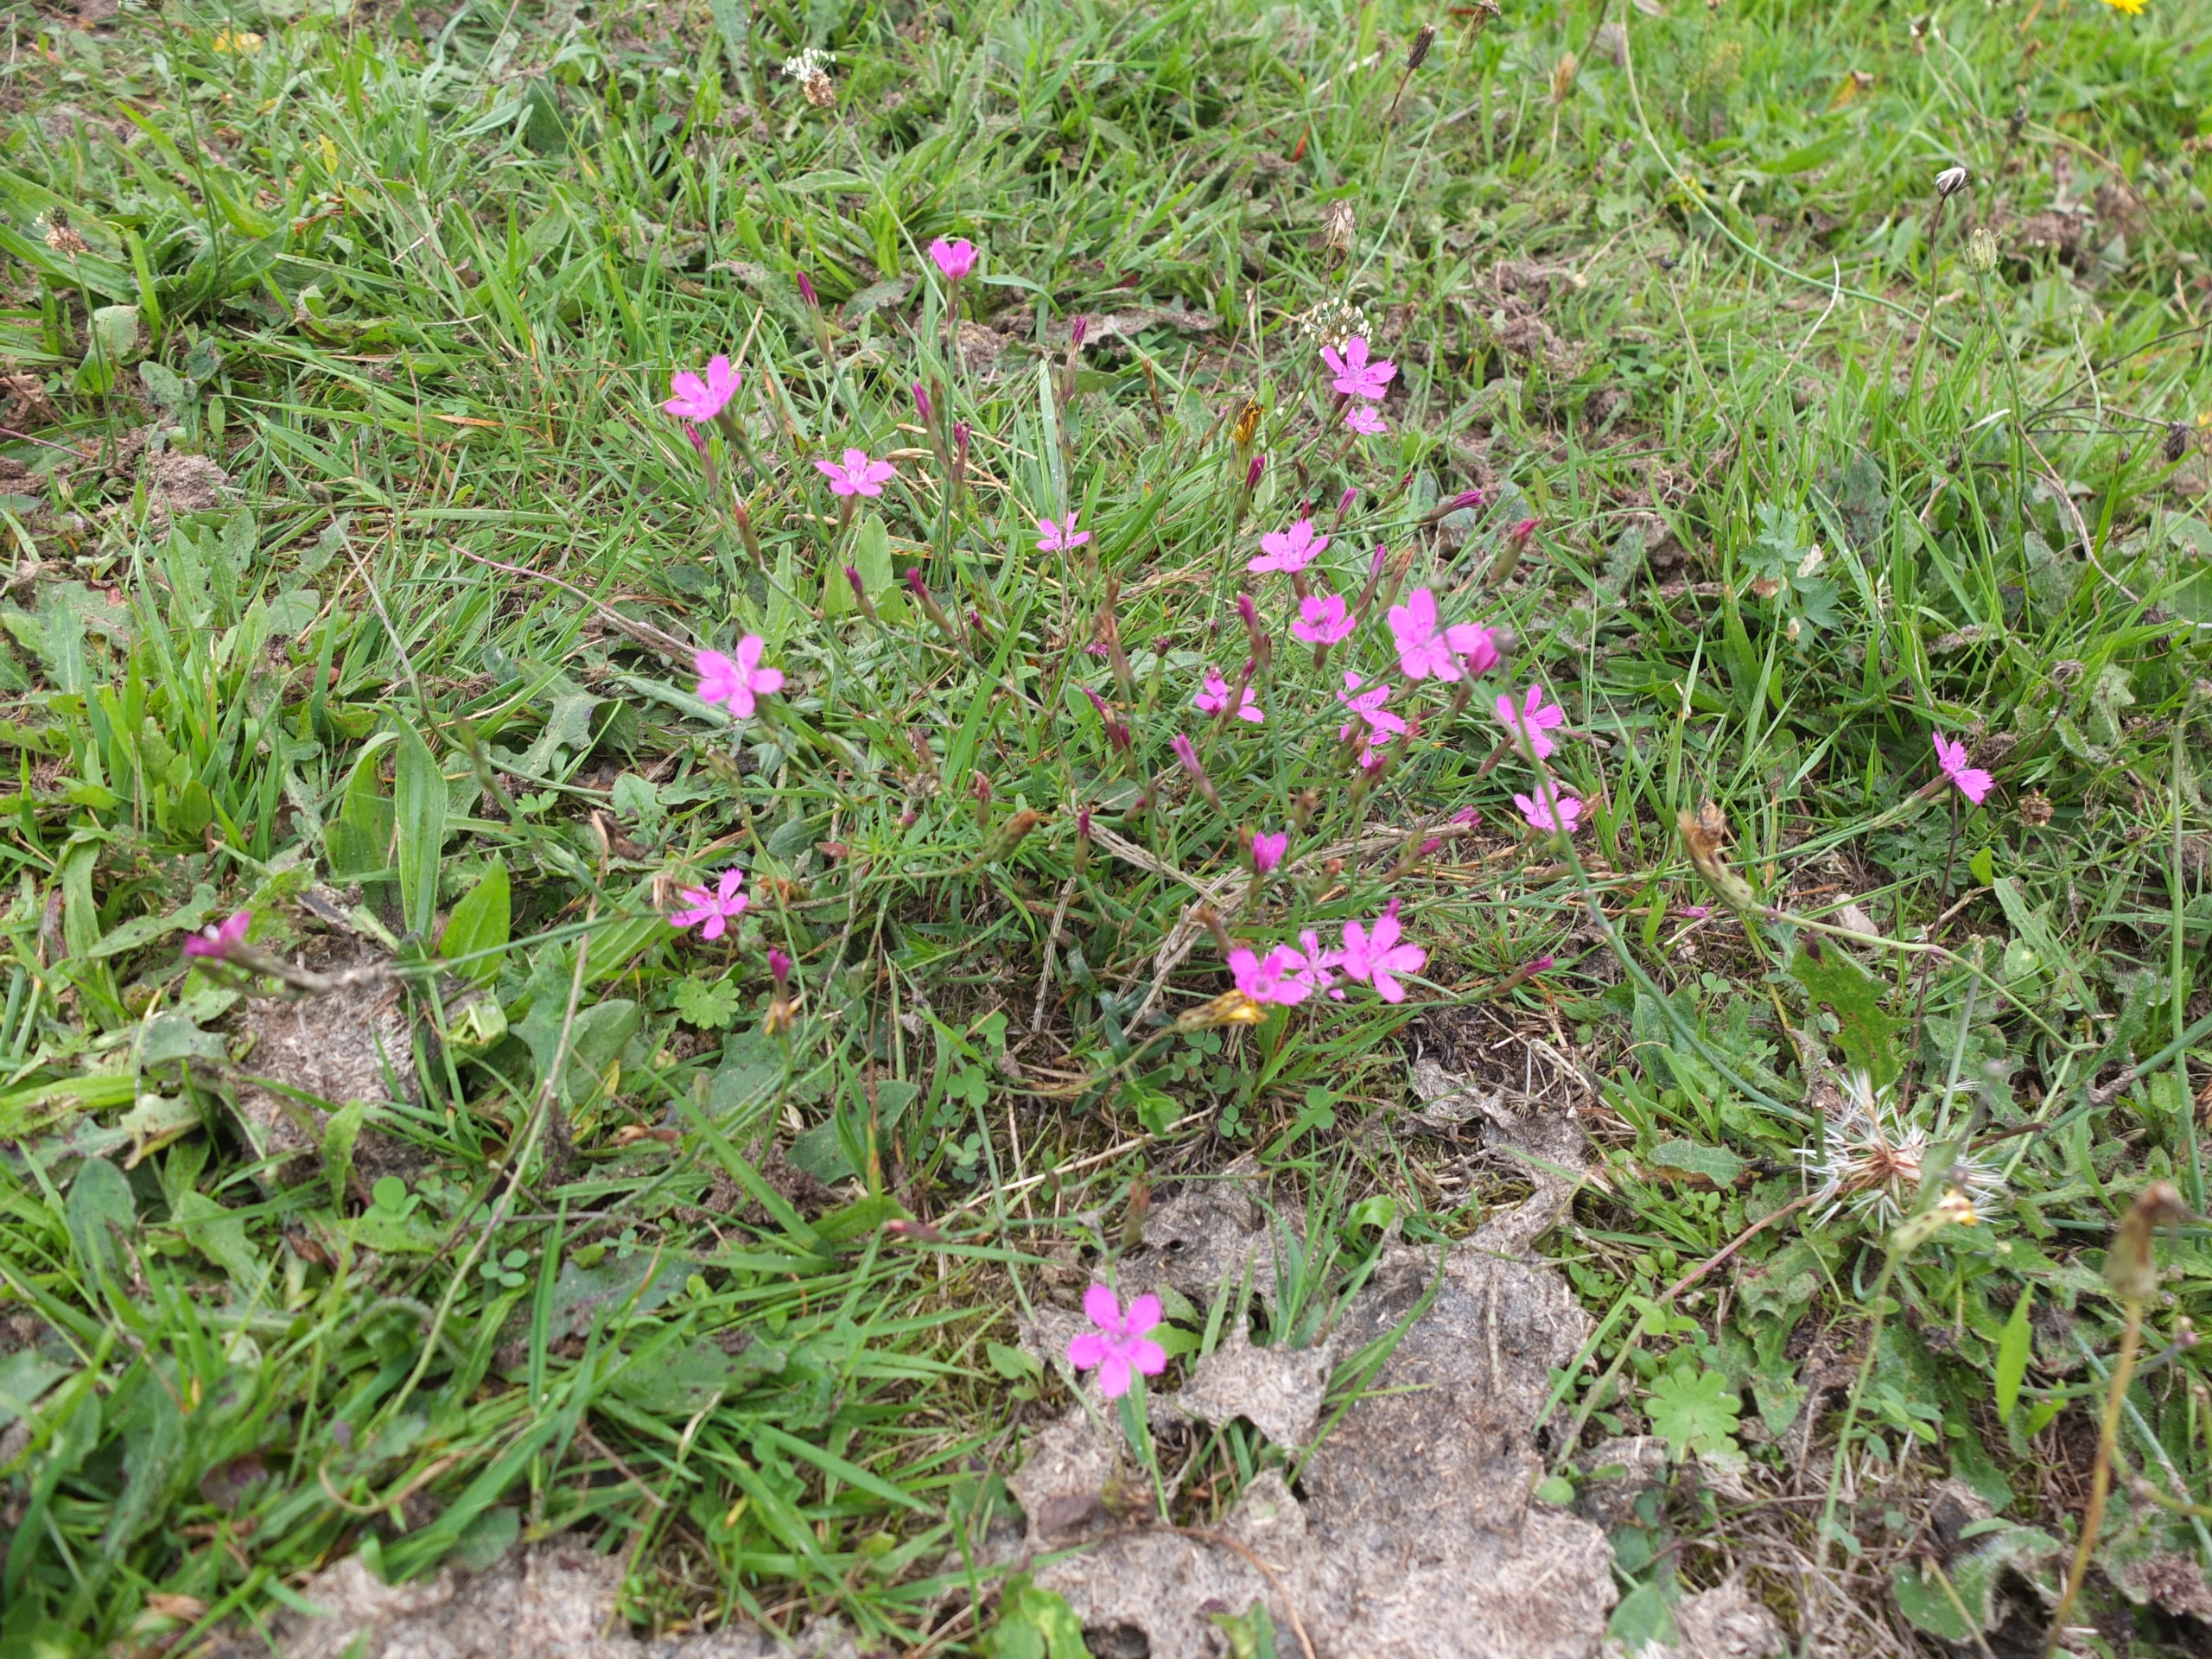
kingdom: Plantae
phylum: Tracheophyta
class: Magnoliopsida
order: Caryophyllales
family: Caryophyllaceae
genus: Dianthus
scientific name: Dianthus deltoides
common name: Bakke-nellike
